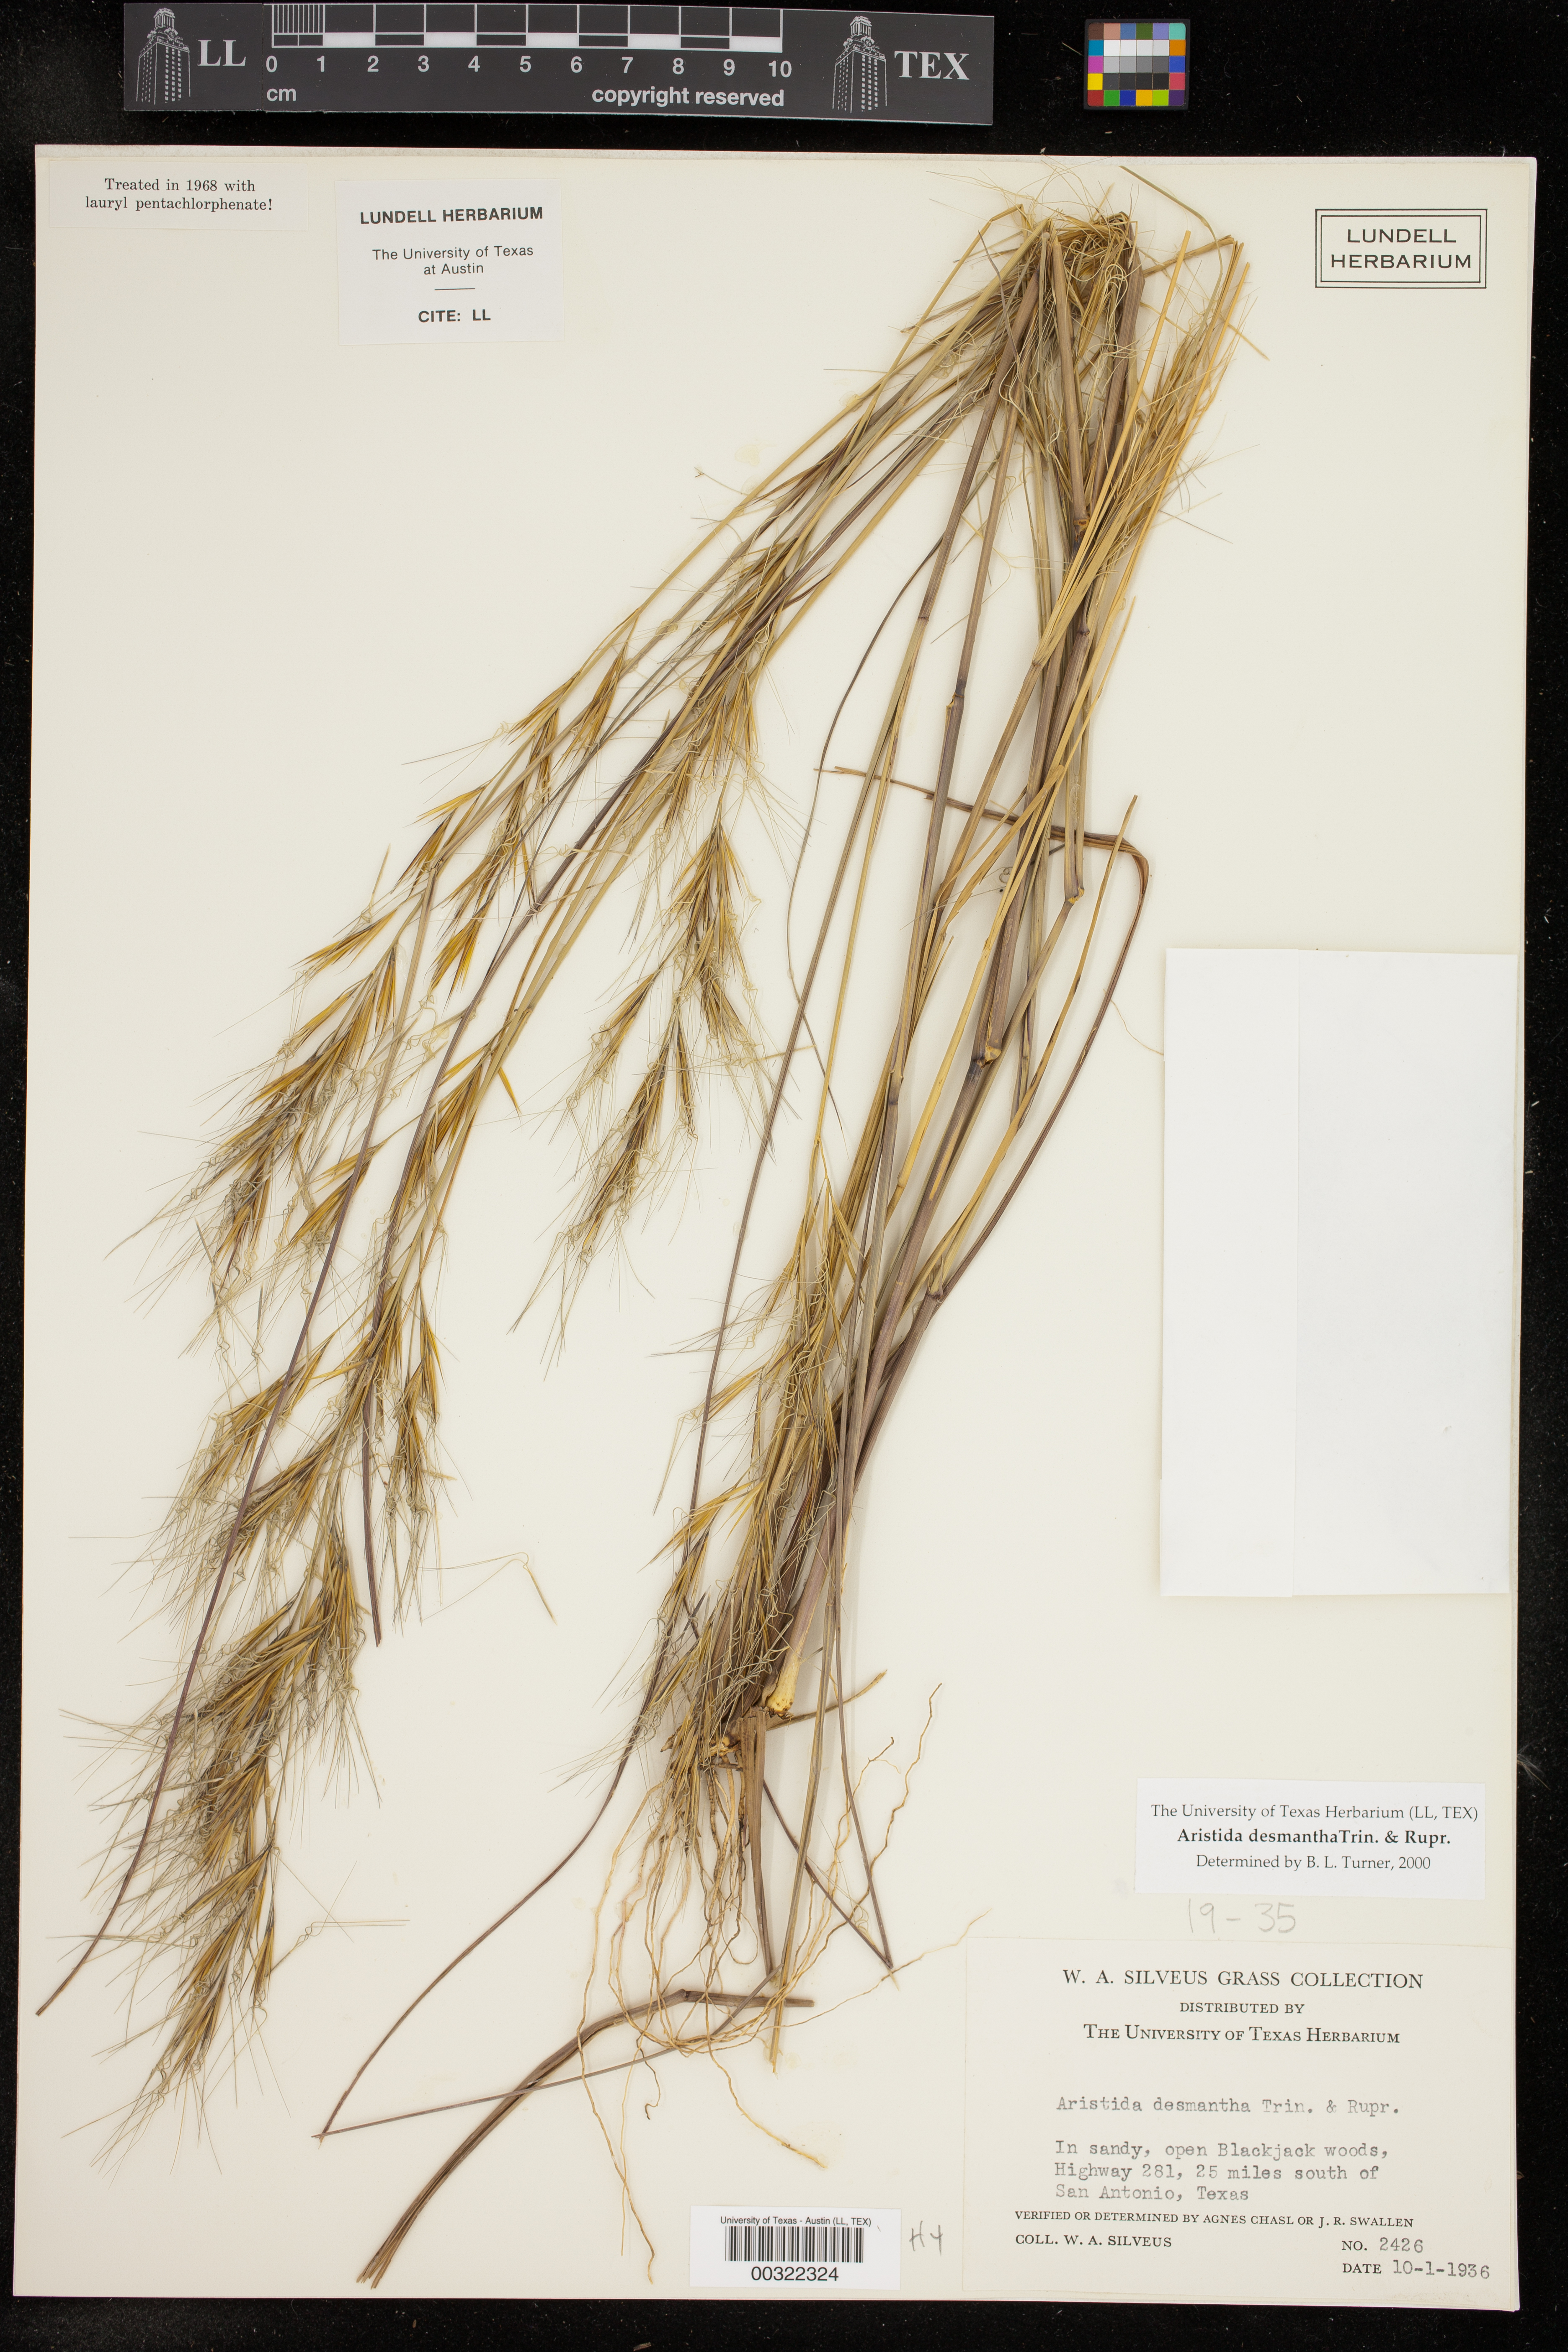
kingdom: Plantae
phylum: Tracheophyta
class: Liliopsida
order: Poales
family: Poaceae
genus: Aristida
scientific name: Aristida desmantha
